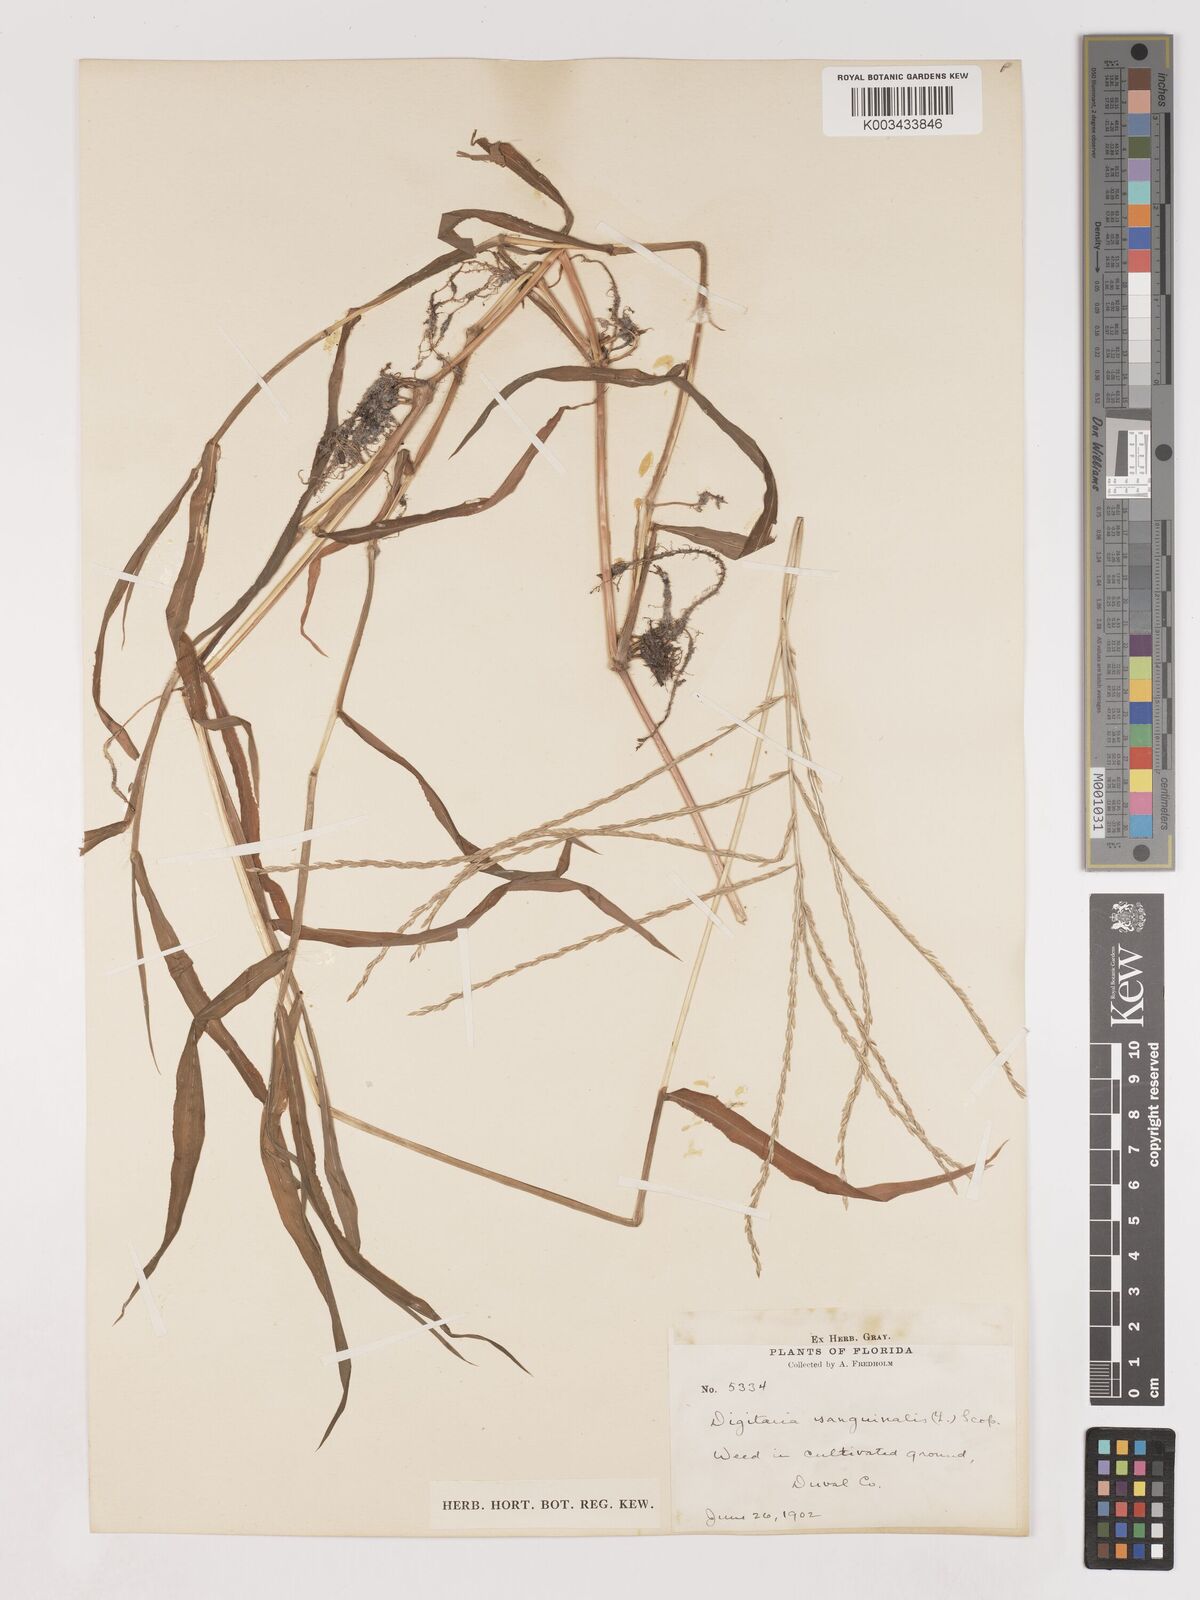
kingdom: Plantae
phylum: Tracheophyta
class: Liliopsida
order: Poales
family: Poaceae
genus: Digitaria
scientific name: Digitaria ciliaris
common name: Tropical finger-grass
